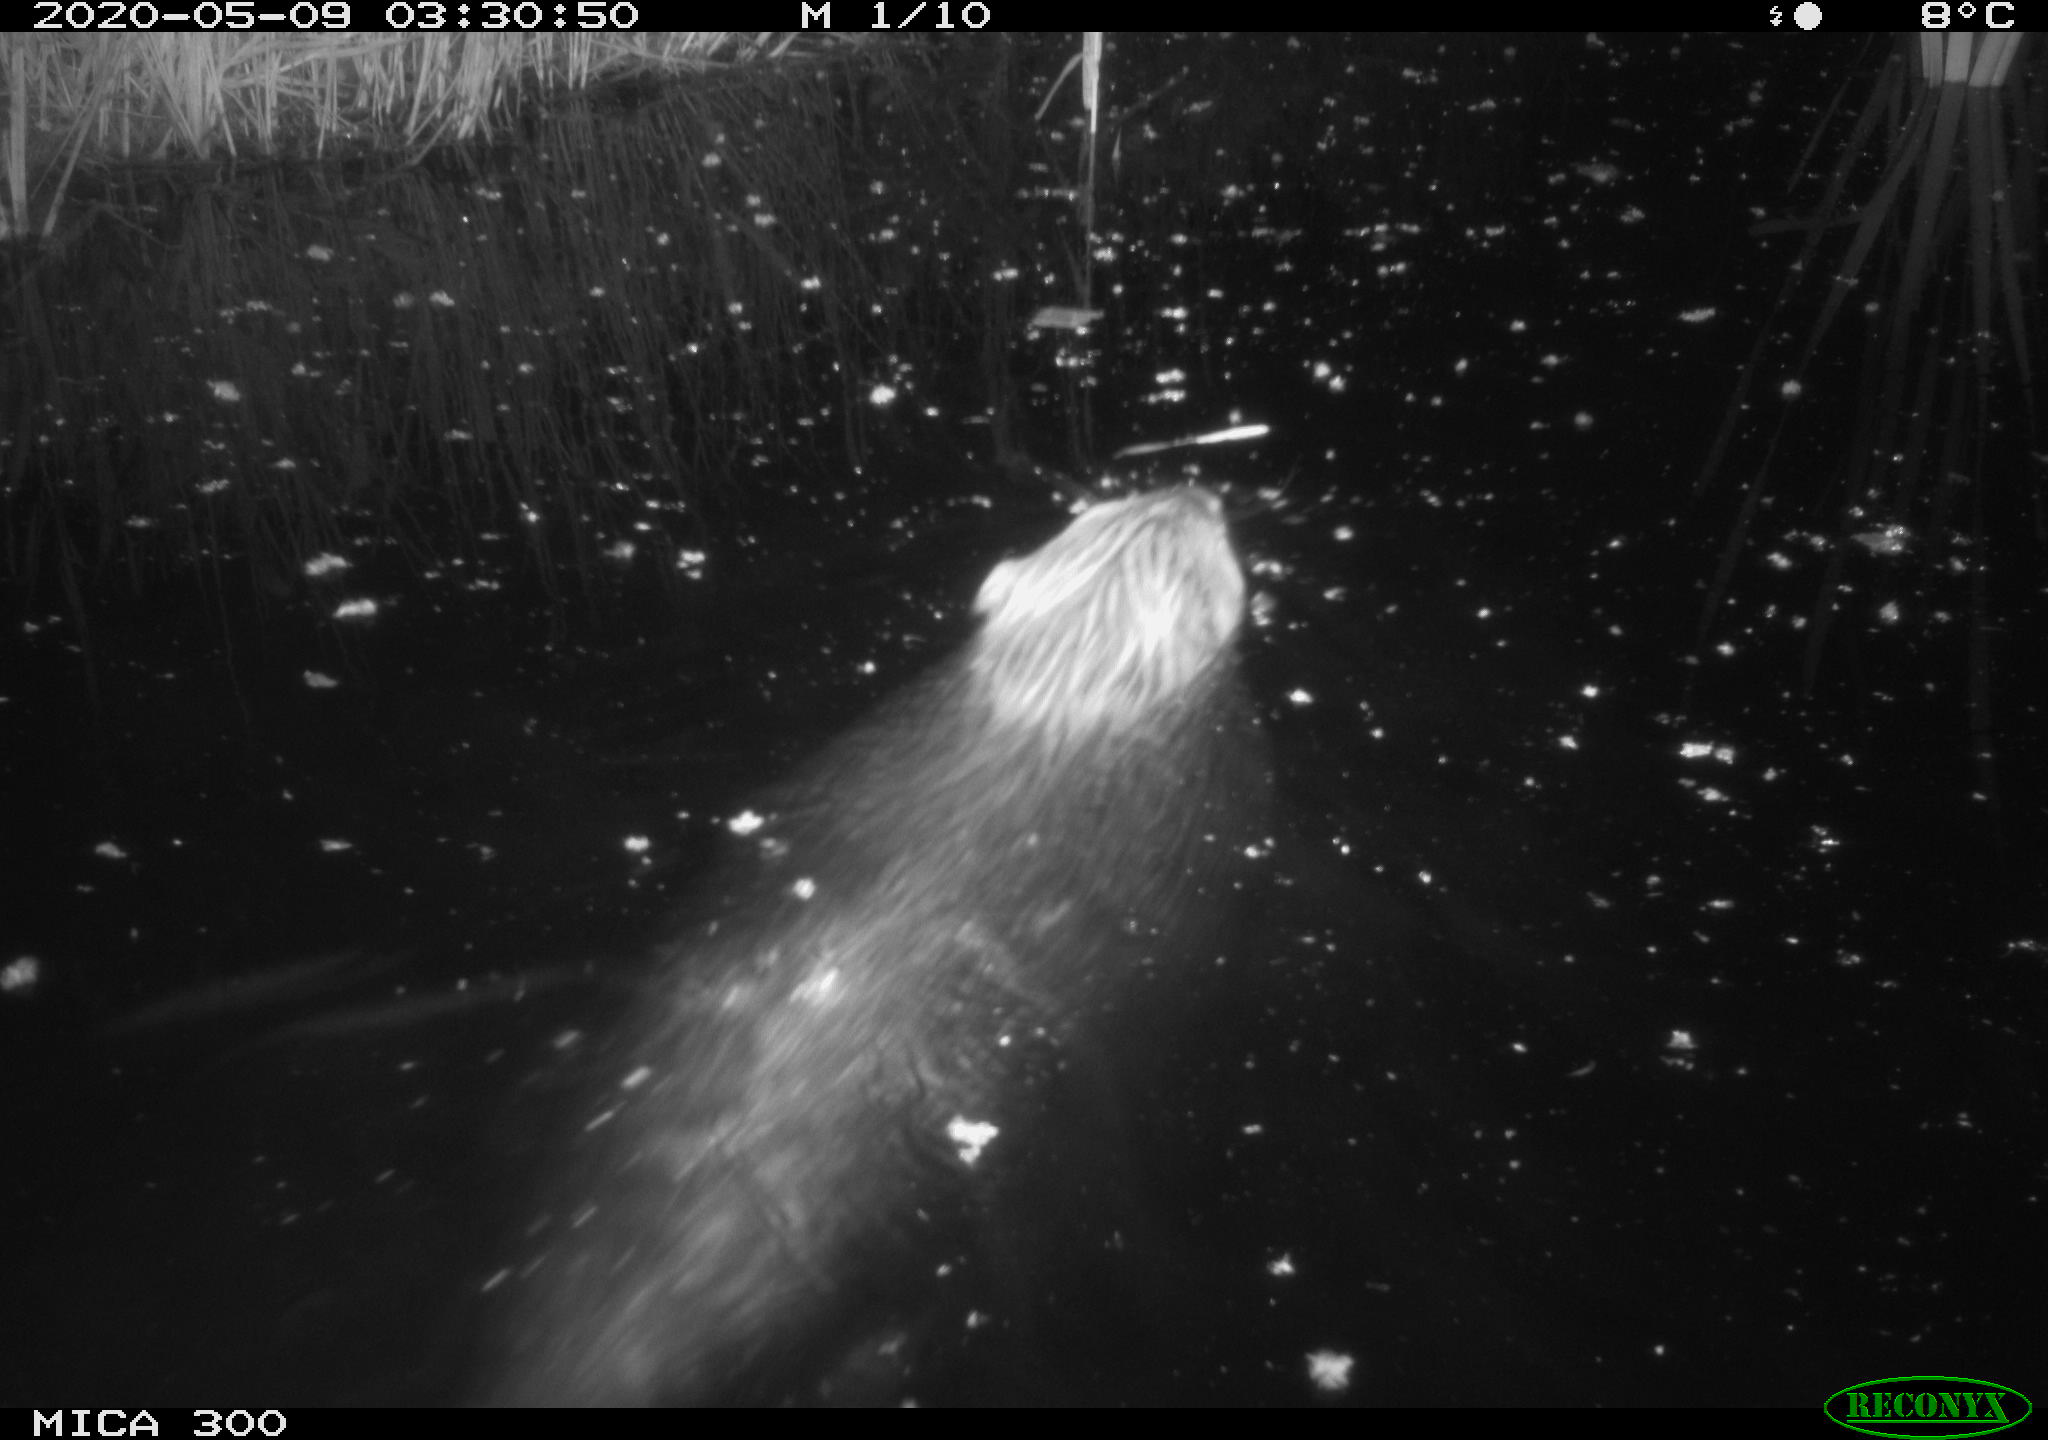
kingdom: Animalia
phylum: Chordata
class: Mammalia
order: Rodentia
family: Castoridae
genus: Castor
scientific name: Castor fiber
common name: Eurasian beaver
